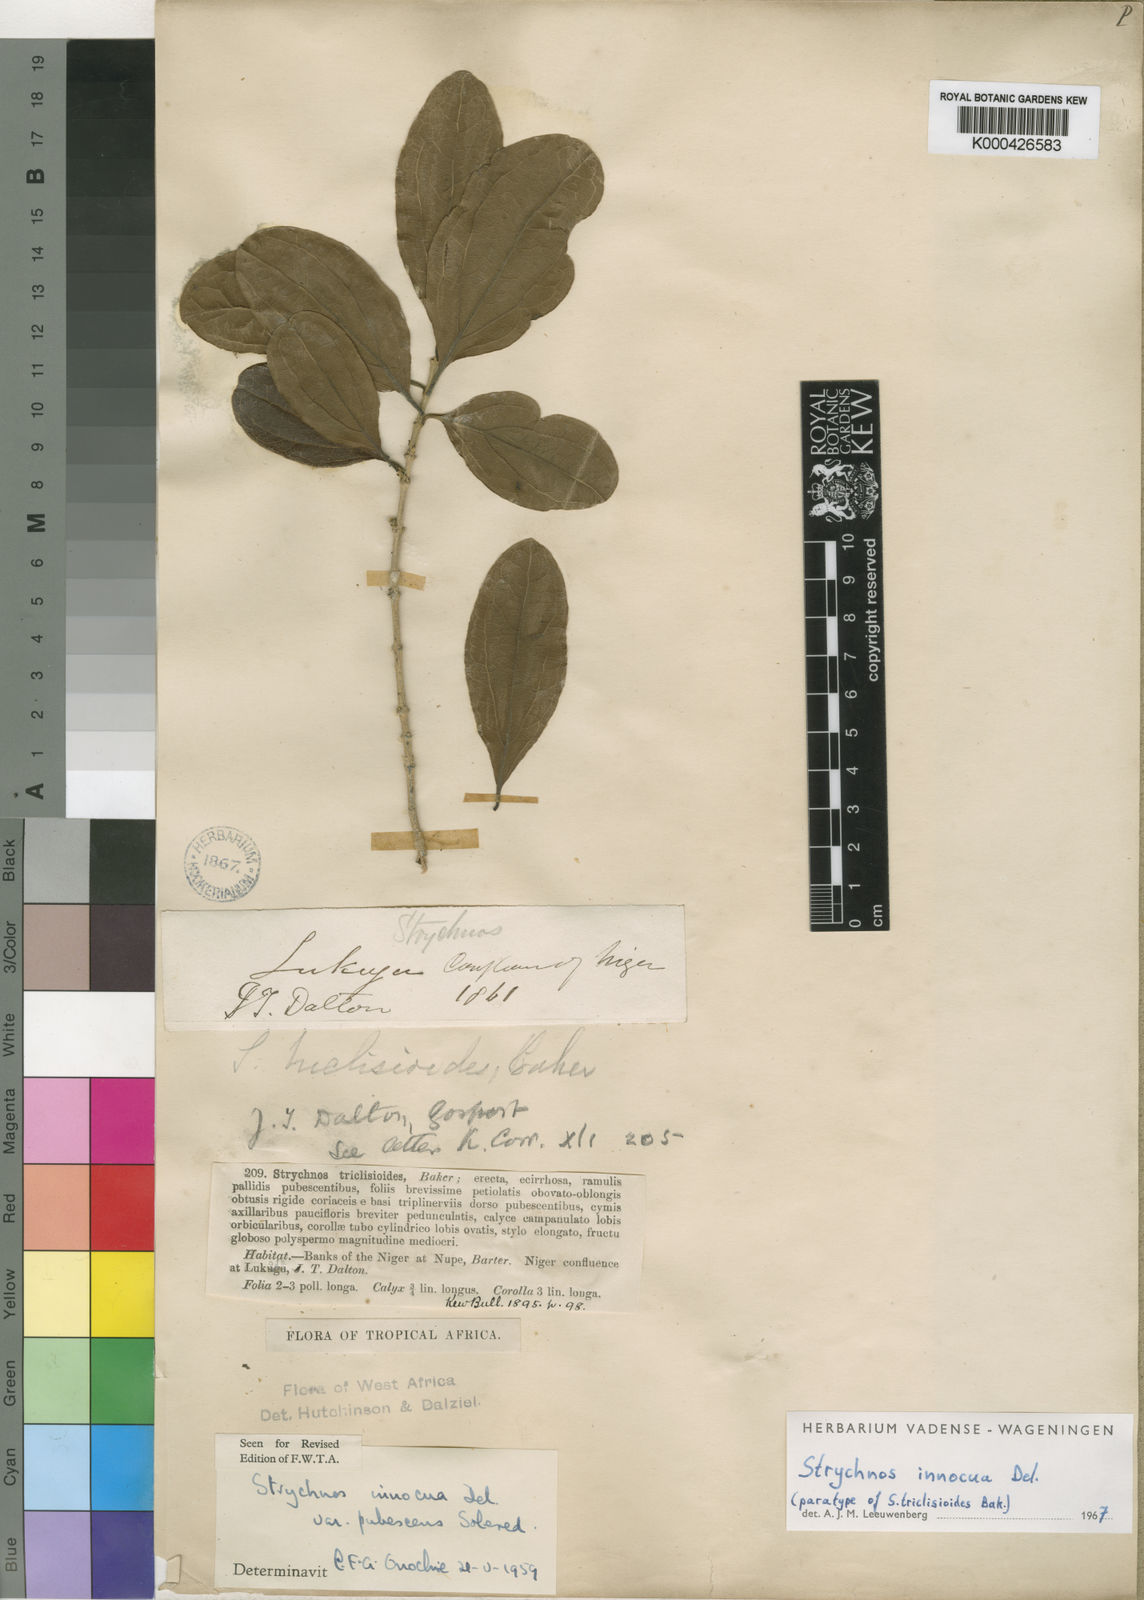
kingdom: Plantae
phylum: Tracheophyta
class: Magnoliopsida
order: Gentianales
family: Loganiaceae
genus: Strychnos
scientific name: Strychnos innocua
